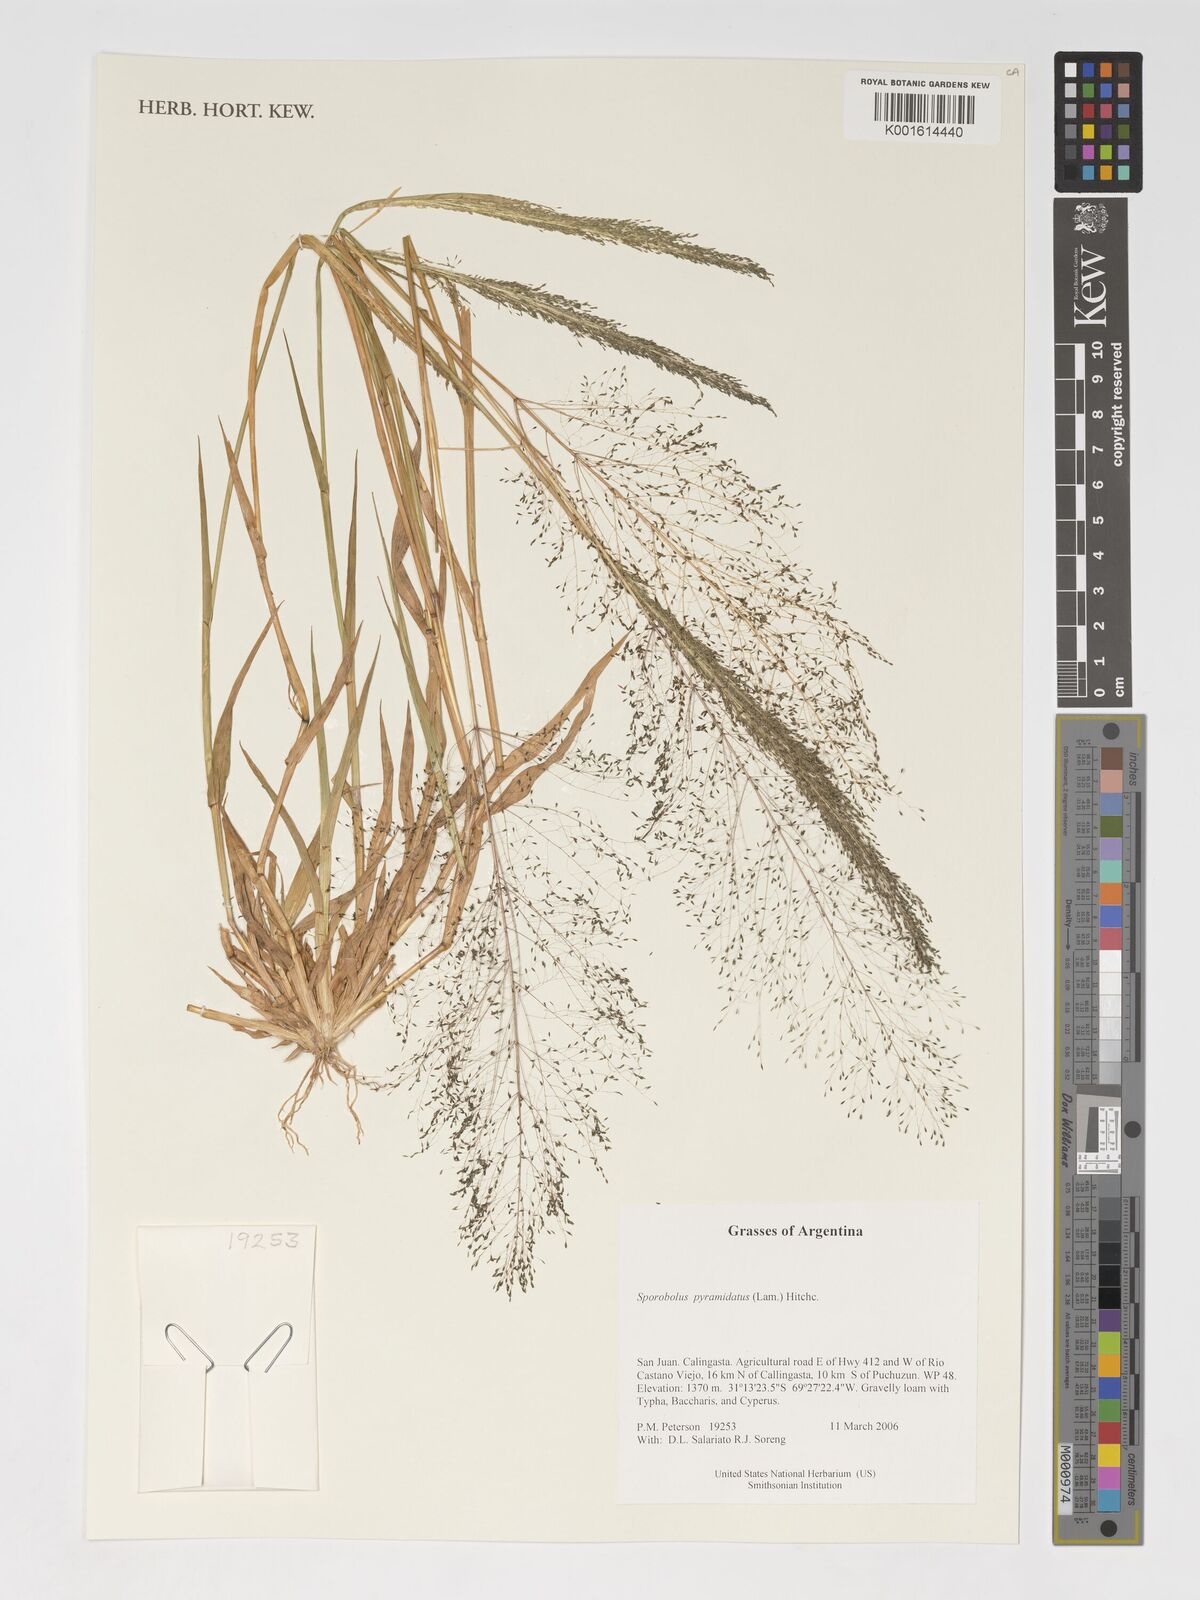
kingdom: Plantae
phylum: Tracheophyta
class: Liliopsida
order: Poales
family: Poaceae
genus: Sporobolus
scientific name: Sporobolus pyramidatus
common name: Whorled dropseed
